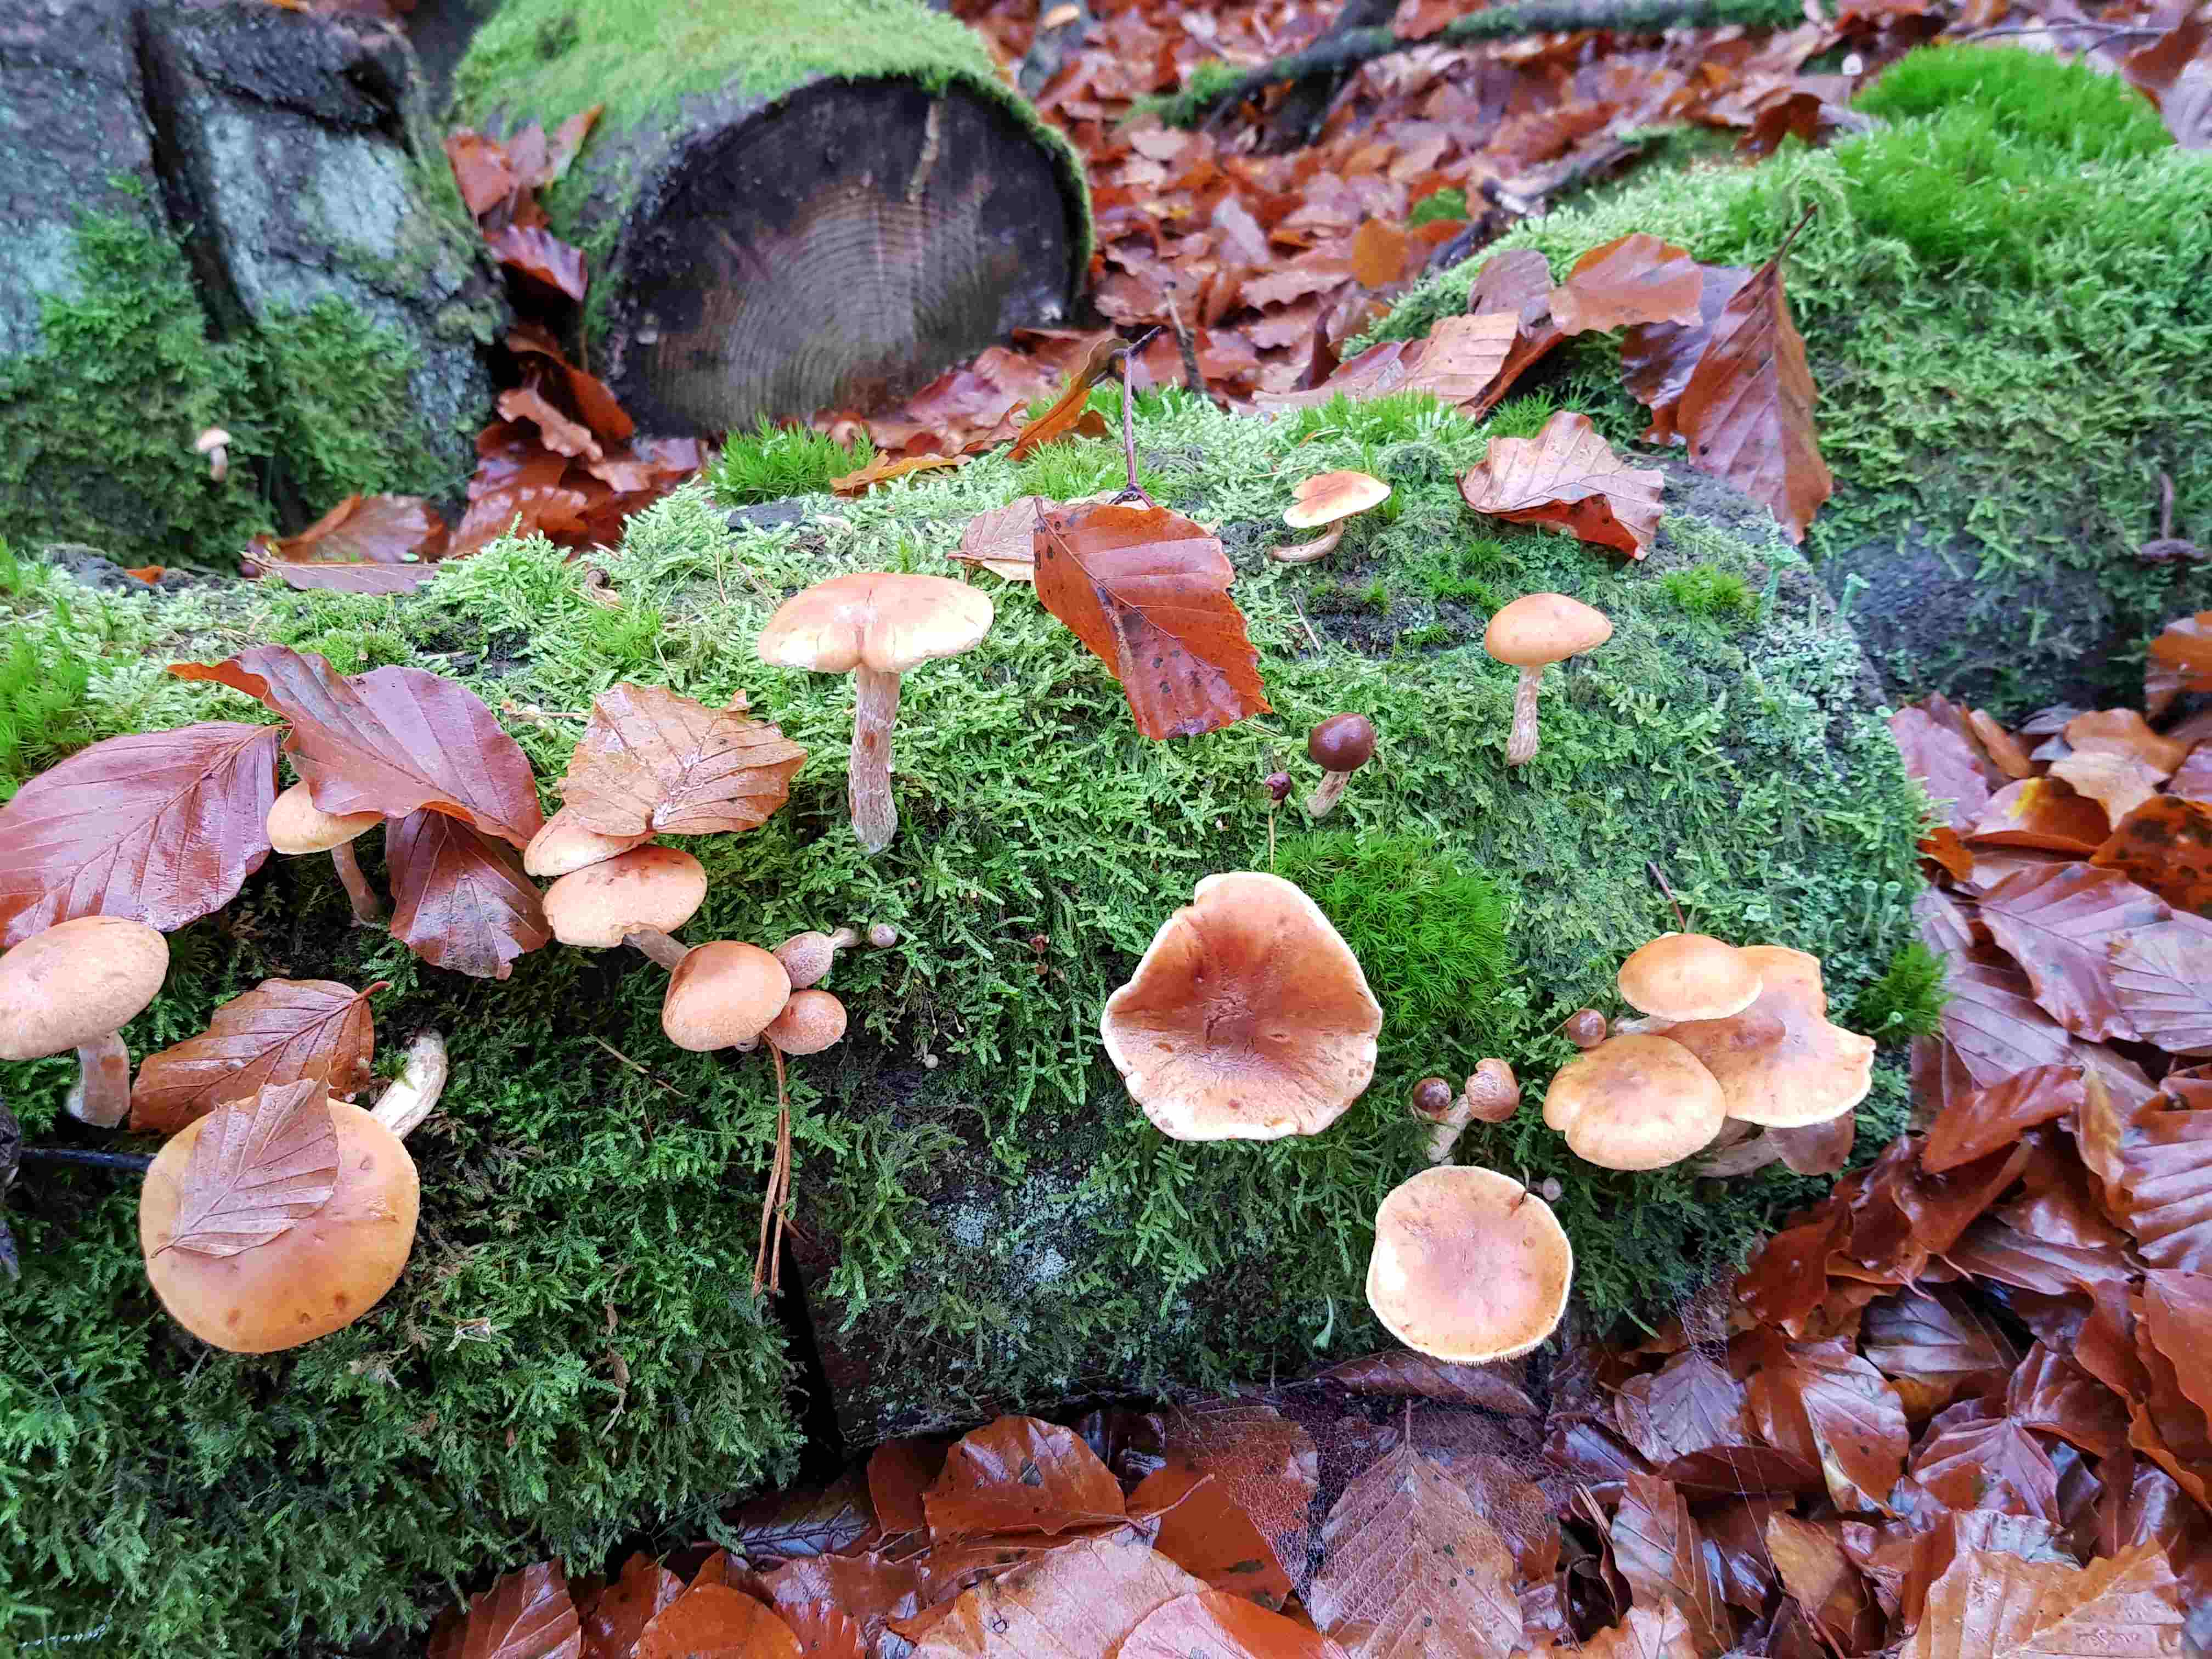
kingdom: Fungi
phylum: Basidiomycota
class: Agaricomycetes
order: Agaricales
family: Hymenogastraceae
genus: Gymnopilus
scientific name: Gymnopilus penetrans
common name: plettet flammehat
